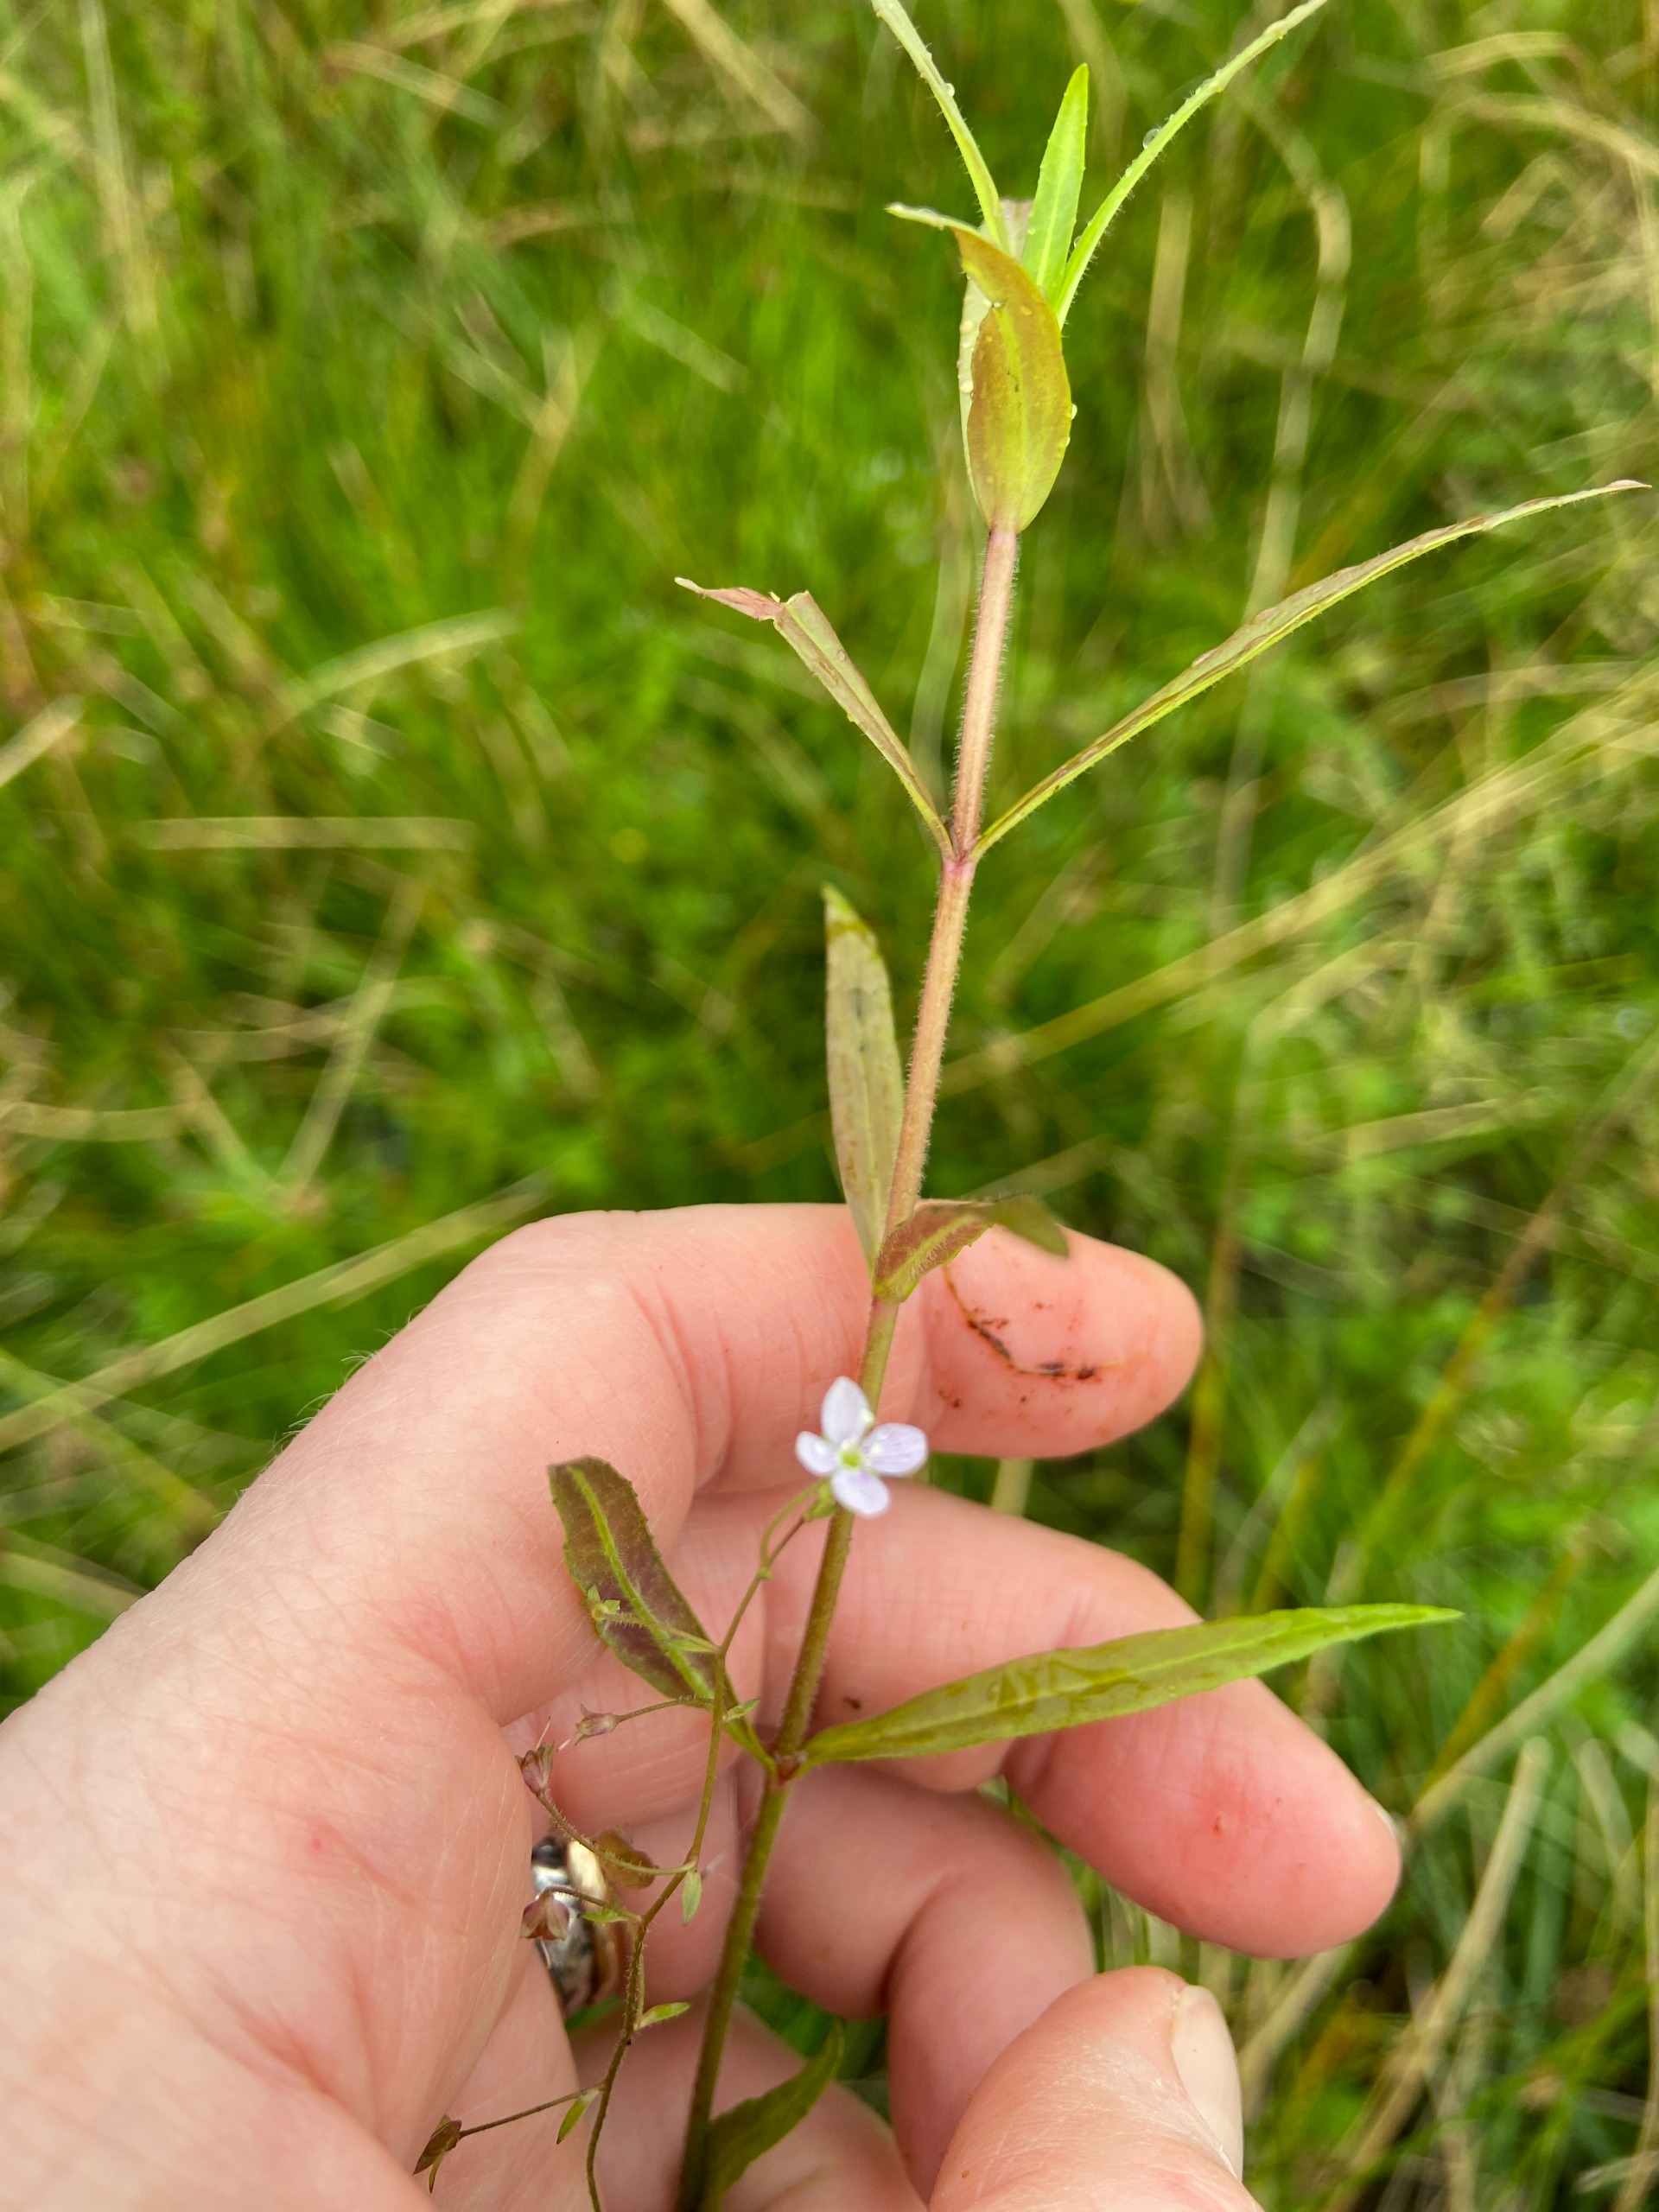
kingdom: Plantae
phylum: Tracheophyta
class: Magnoliopsida
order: Lamiales
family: Plantaginaceae
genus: Veronica
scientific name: Veronica scutellata
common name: Smalbladet ærenpris
